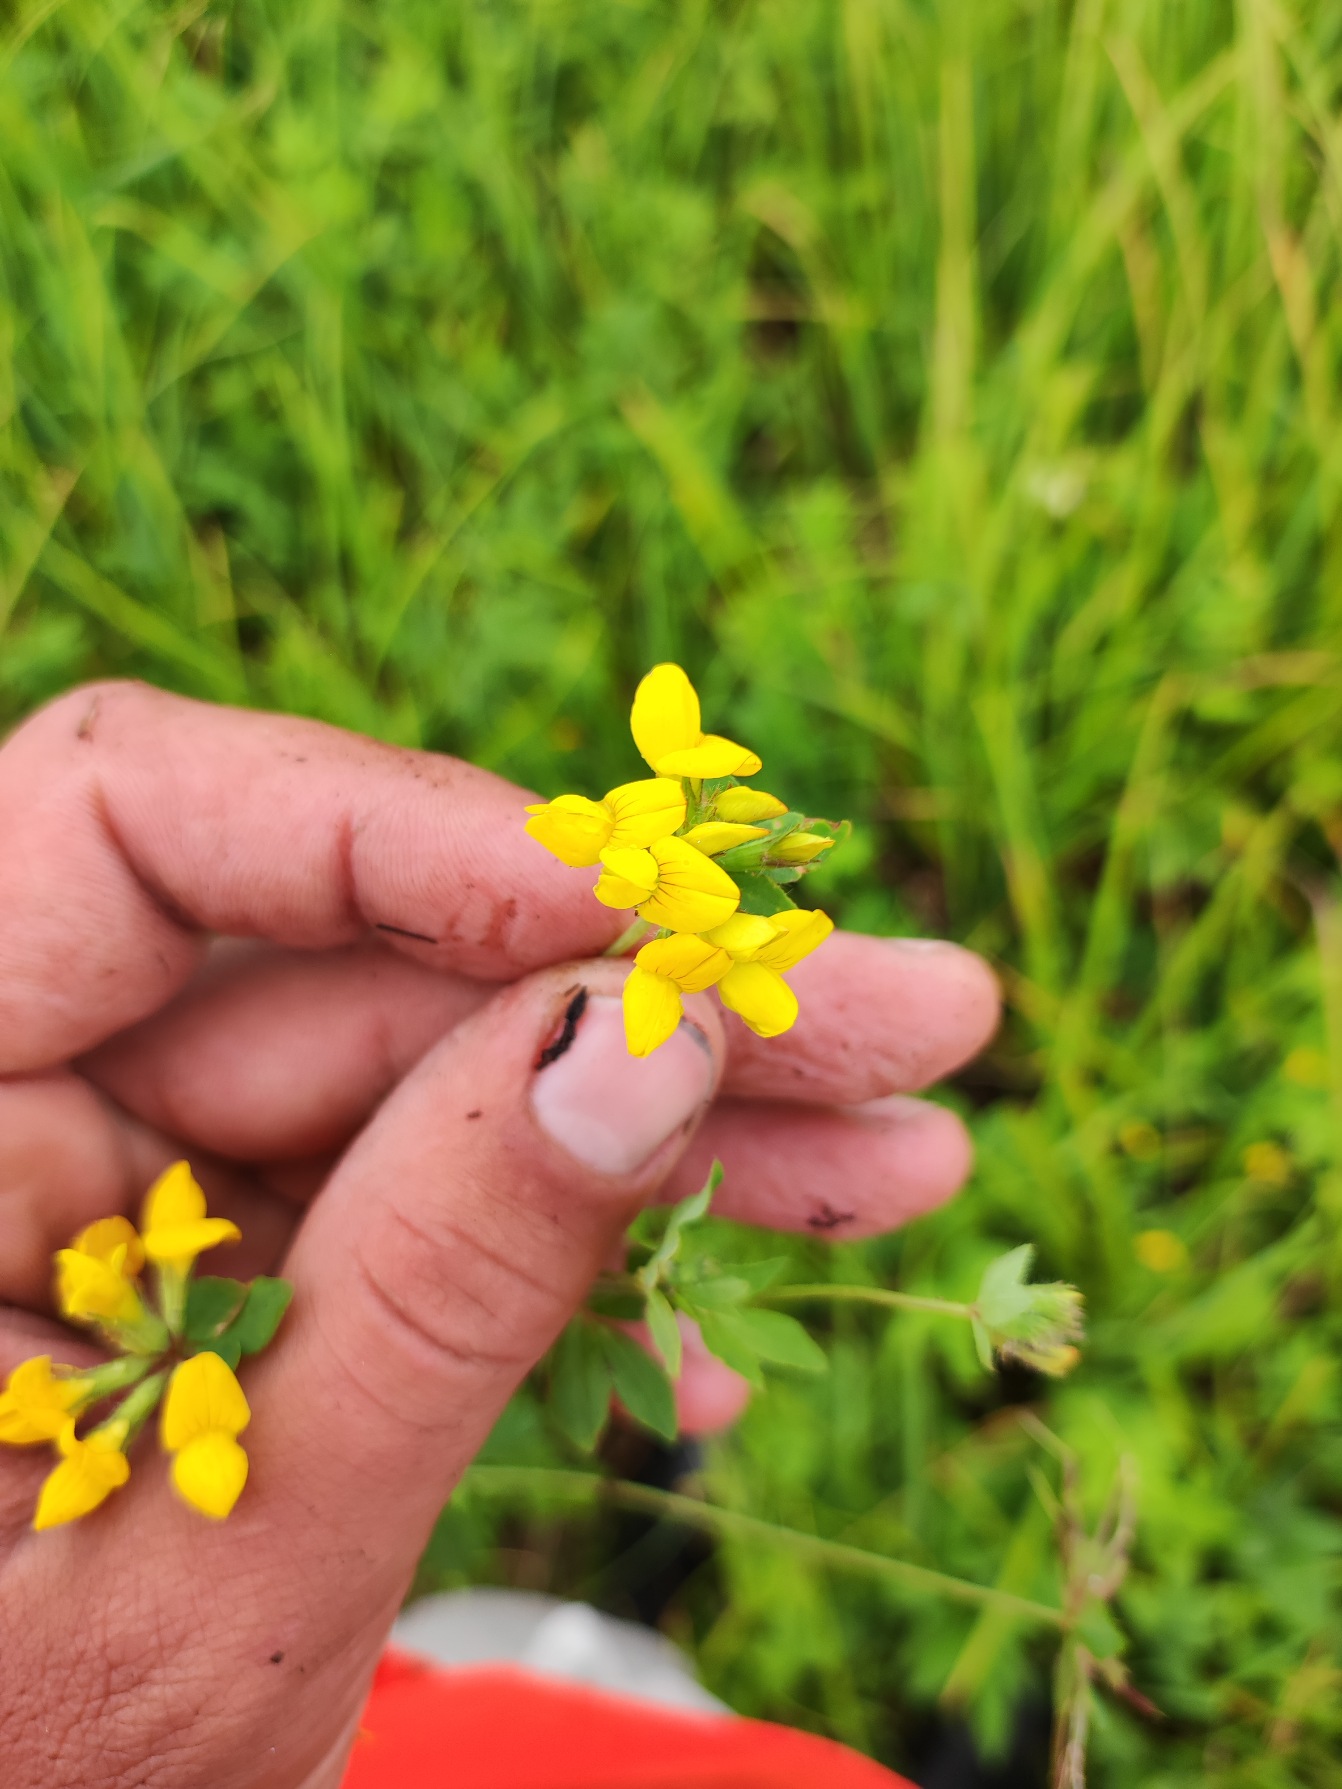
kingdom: Plantae
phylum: Tracheophyta
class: Magnoliopsida
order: Fabales
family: Fabaceae
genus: Lotus
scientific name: Lotus pedunculatus
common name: Sump-kællingetand
